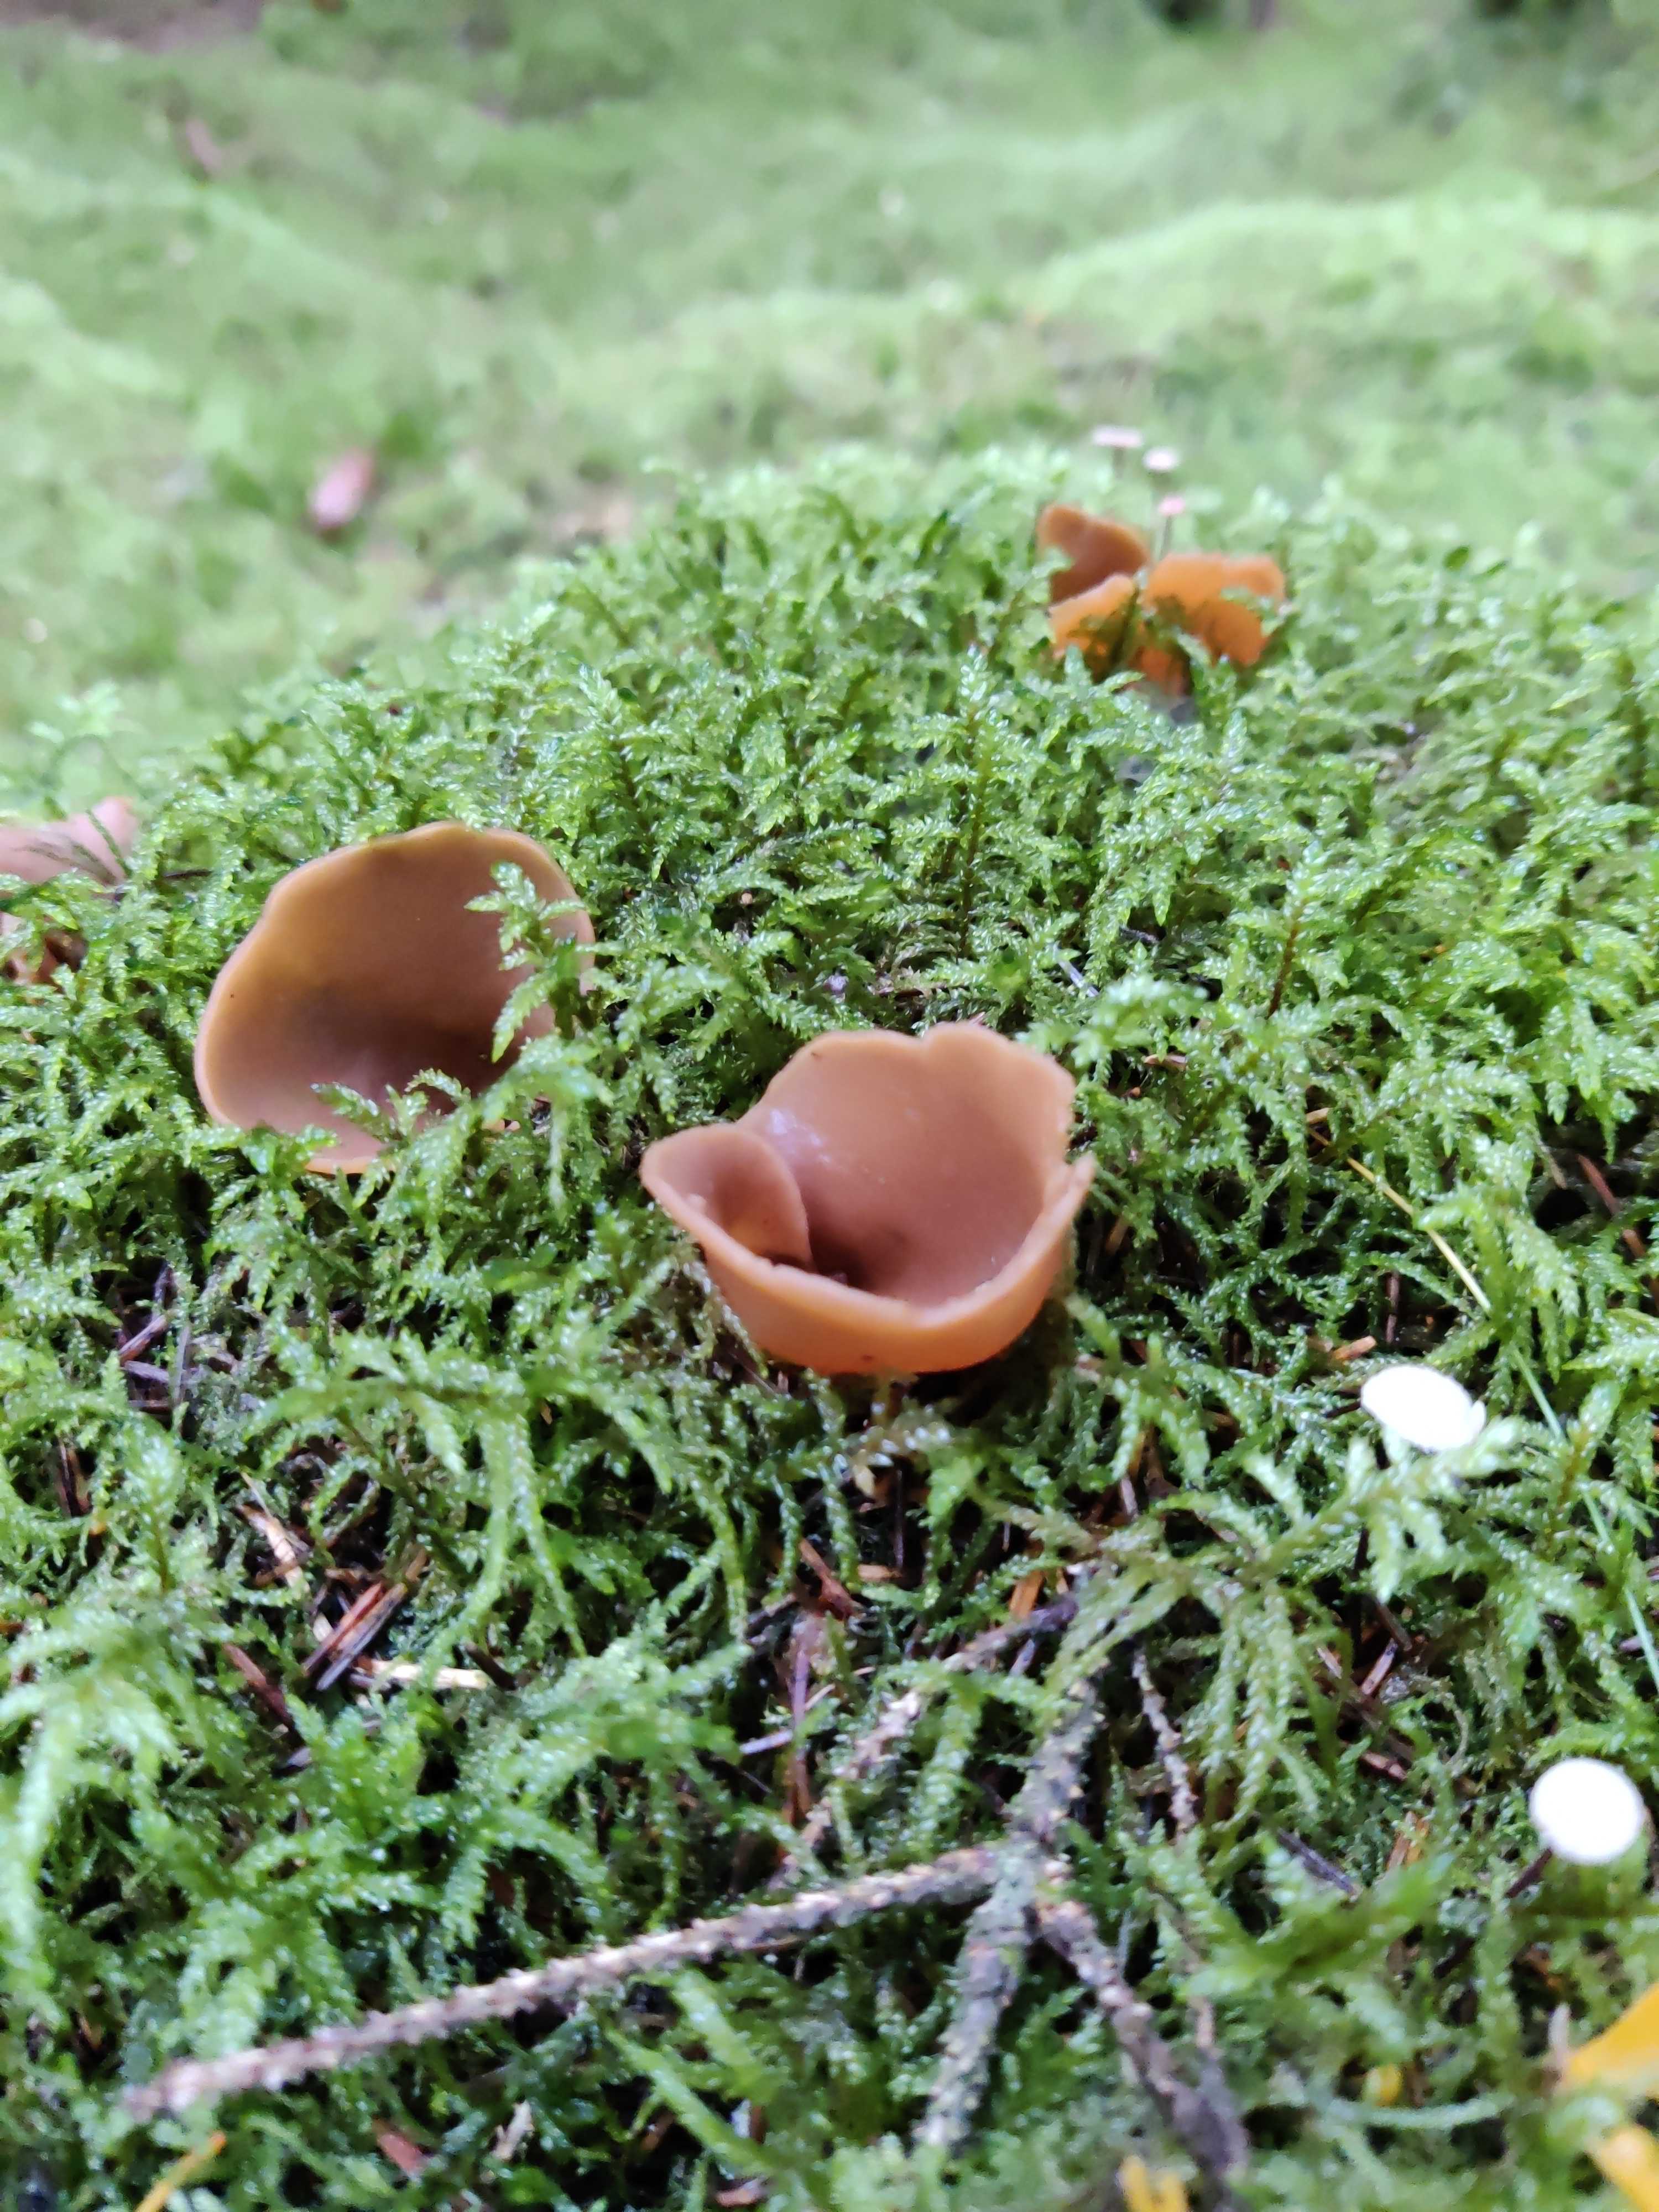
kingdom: Fungi
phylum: Ascomycota
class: Pezizomycetes
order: Pezizales
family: Otideaceae
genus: Otidea
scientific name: Otidea
